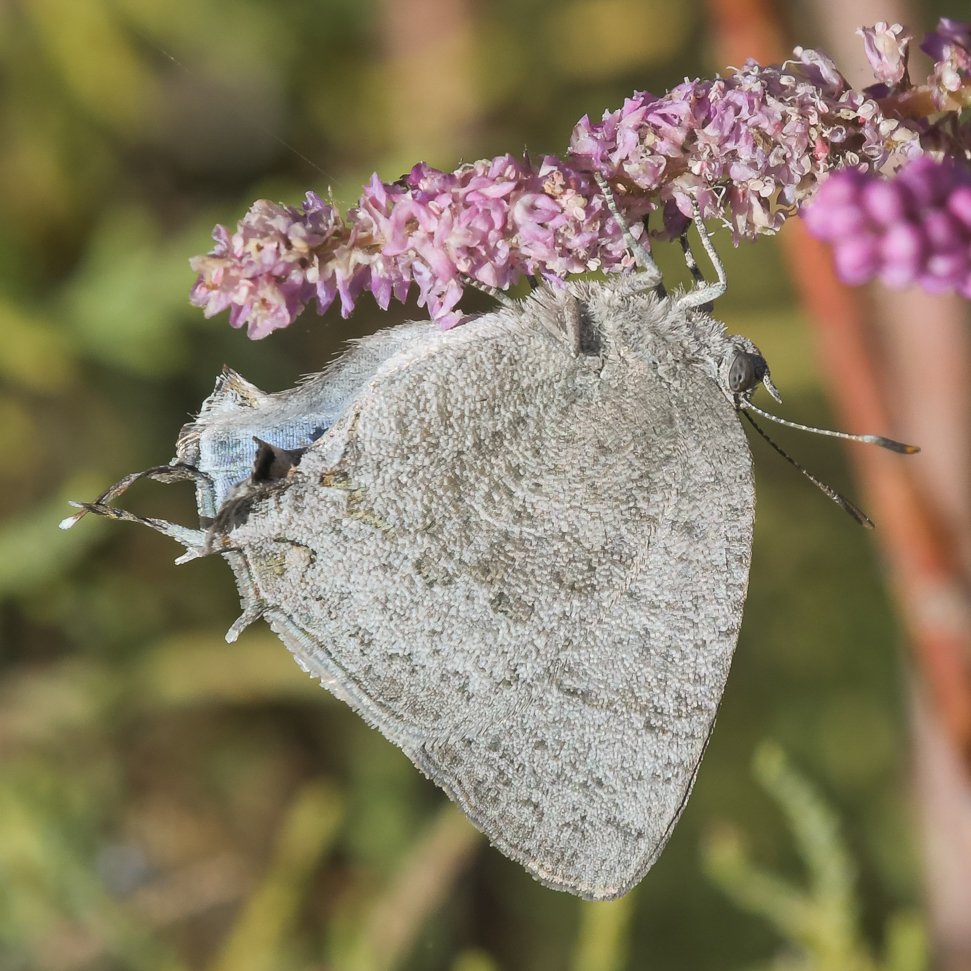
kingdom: Animalia
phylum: Arthropoda
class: Insecta
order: Lepidoptera
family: Lycaenidae
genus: Hypostrymon
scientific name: Hypostrymon critola
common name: Sonoran Hairstreak
